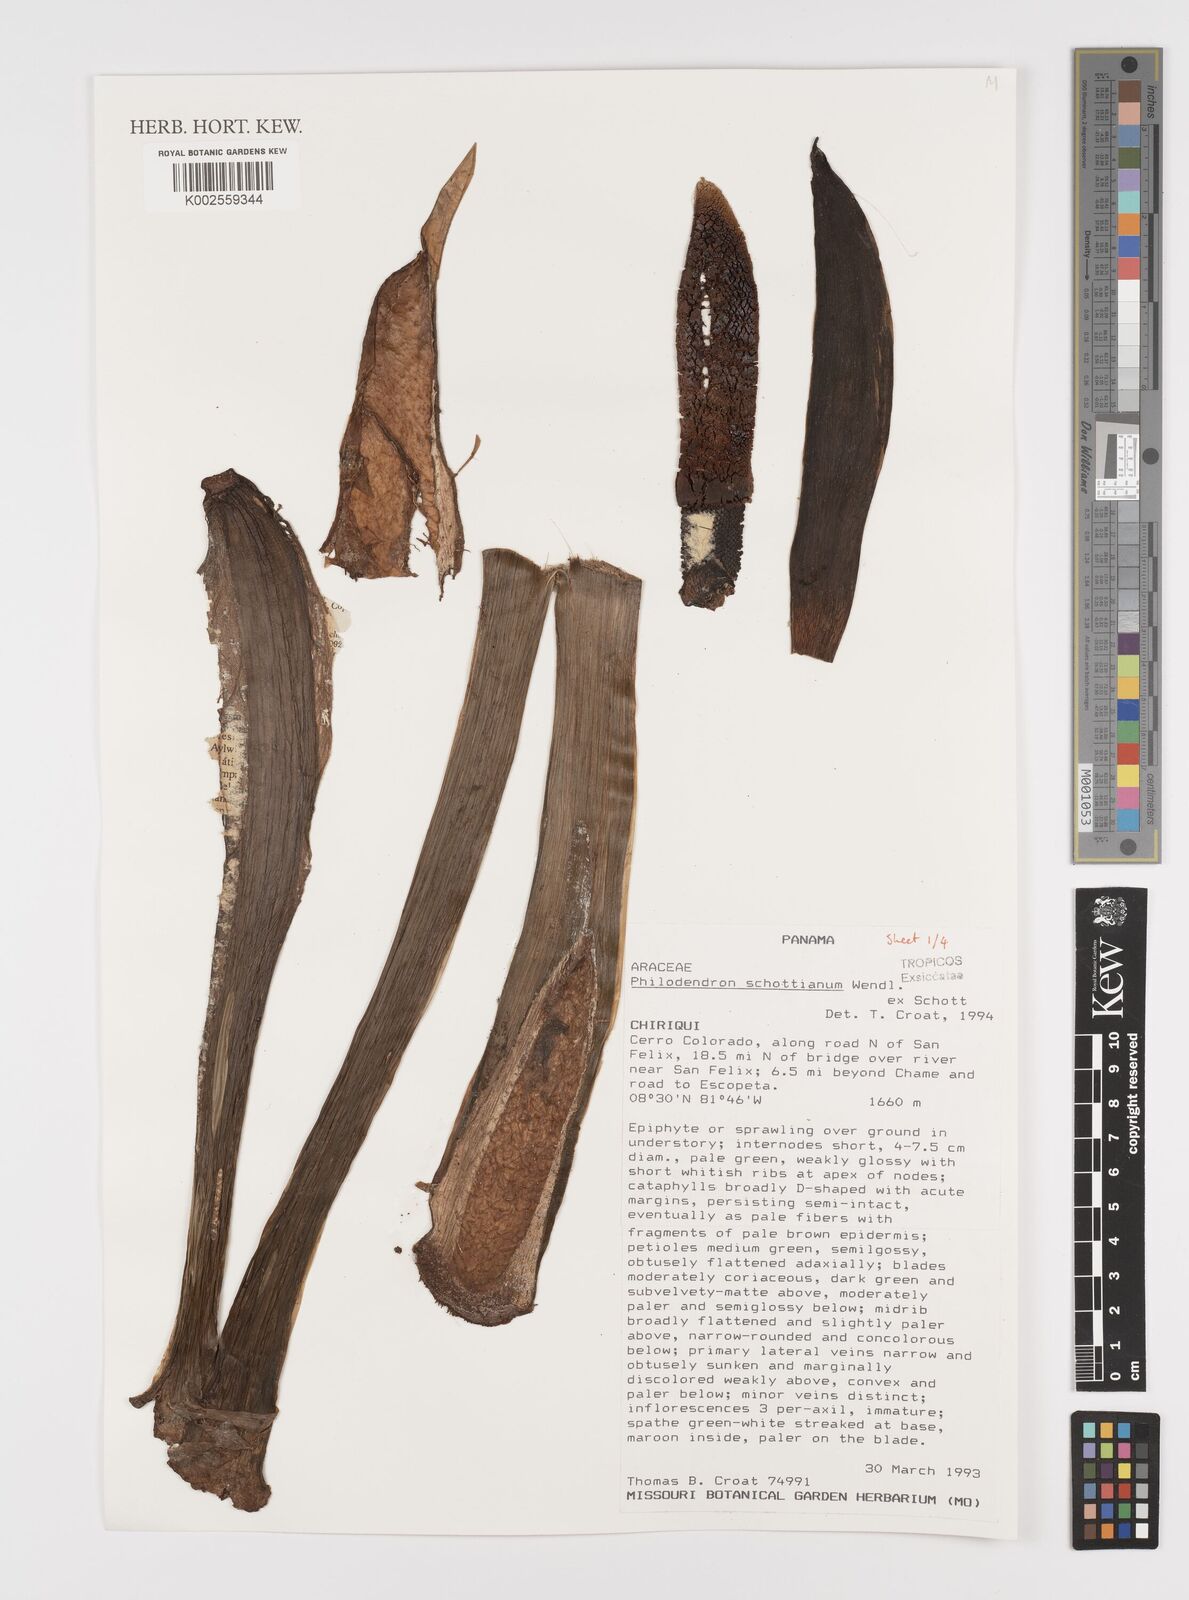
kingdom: Plantae
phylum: Tracheophyta
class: Liliopsida
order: Alismatales
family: Araceae
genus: Philodendron
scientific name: Philodendron schottianum
